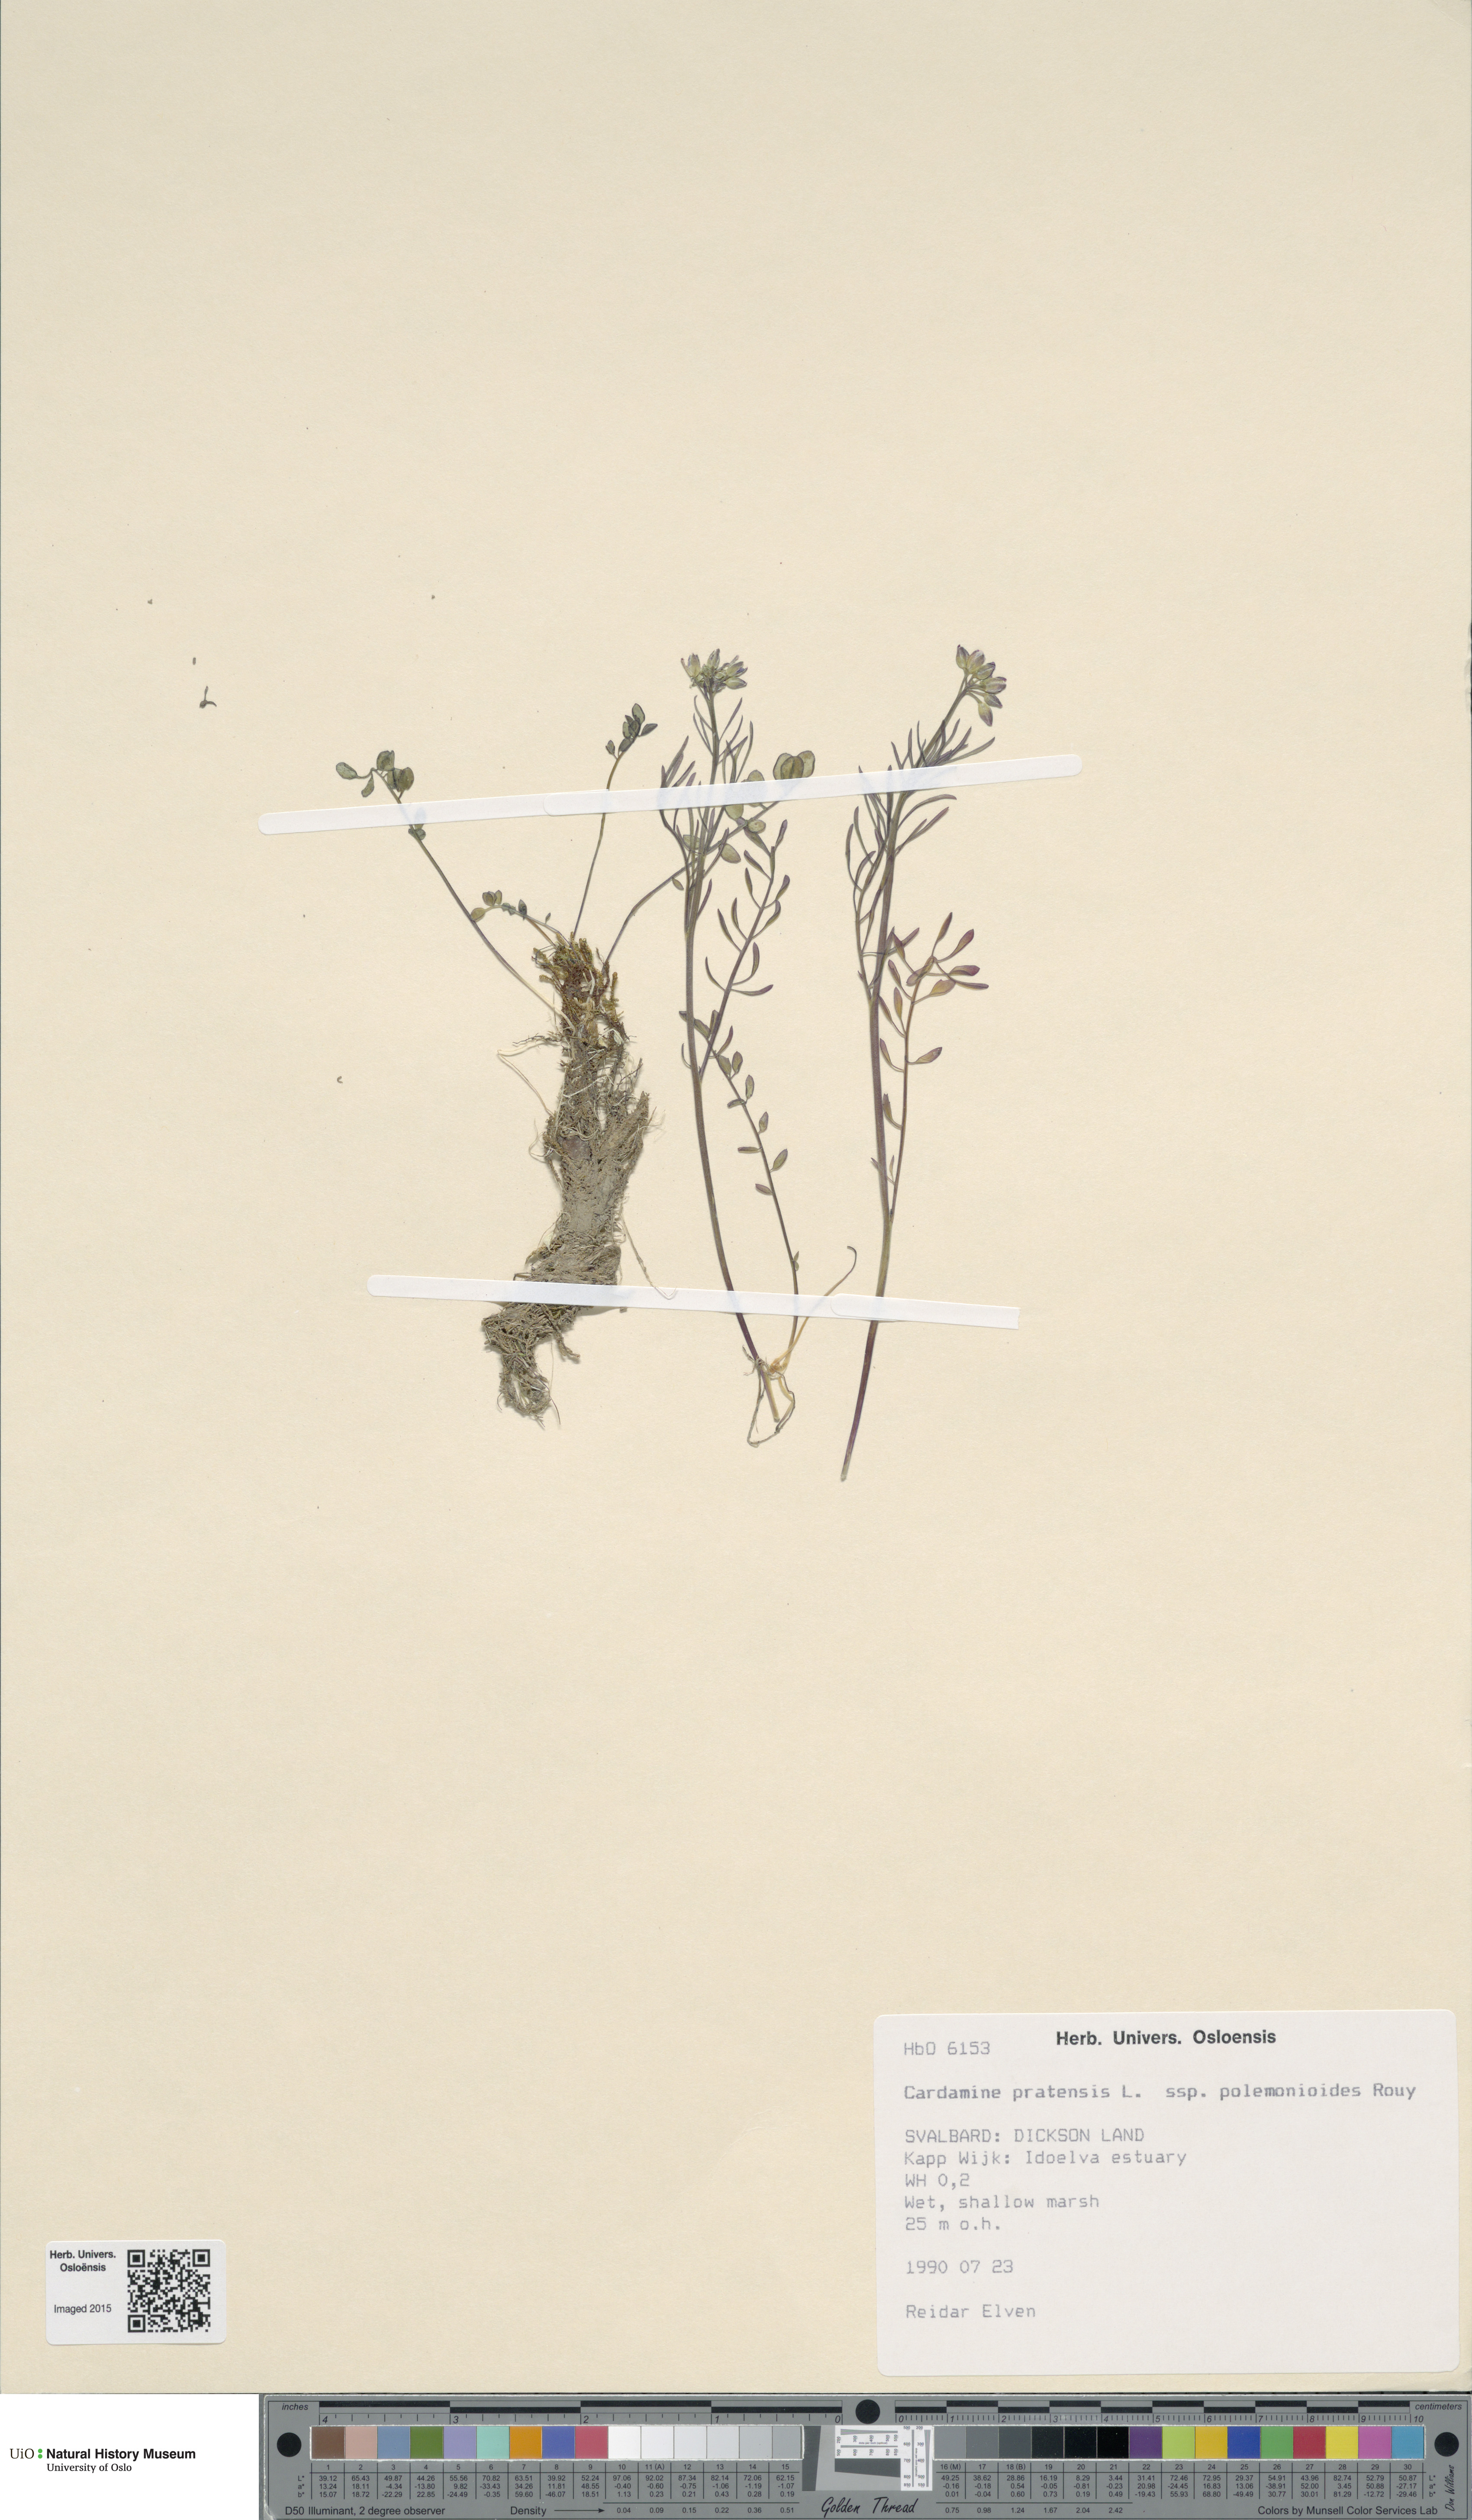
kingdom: Plantae
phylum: Tracheophyta
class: Magnoliopsida
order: Brassicales
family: Brassicaceae
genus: Cardamine
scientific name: Cardamine nymanii
